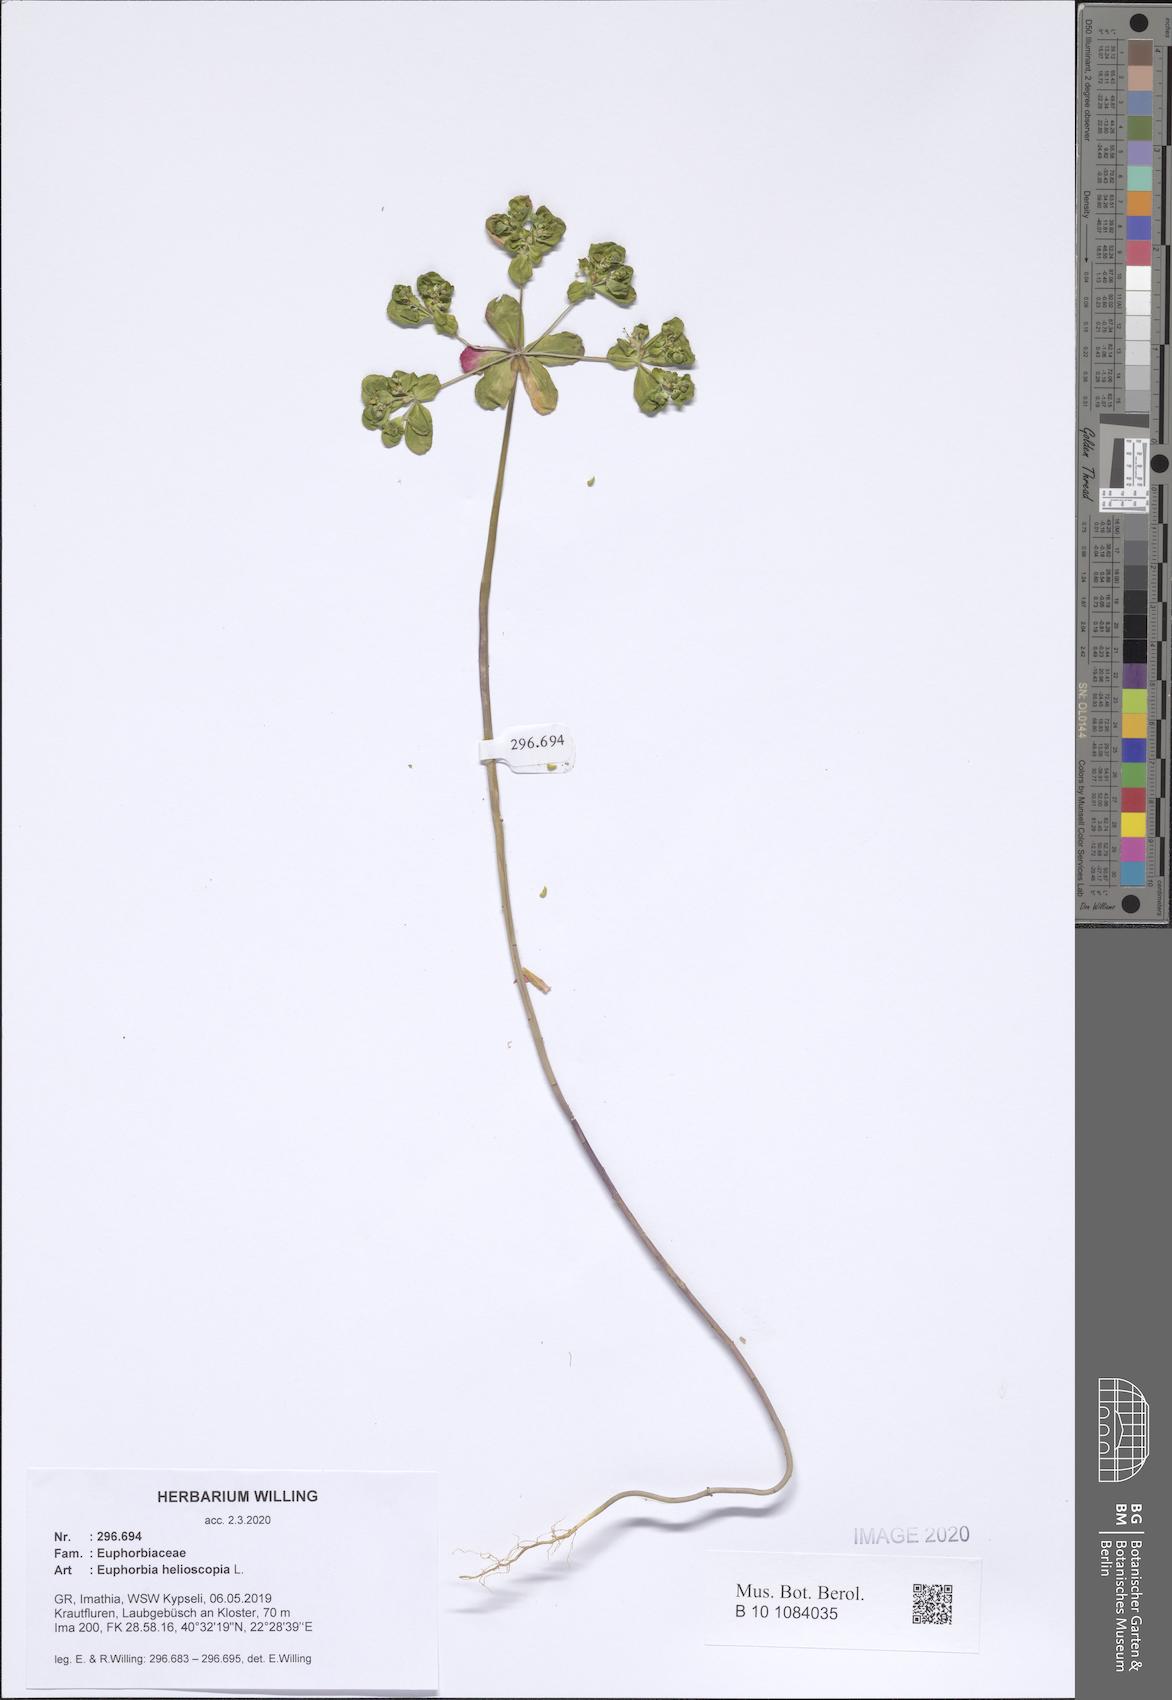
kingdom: Plantae
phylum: Tracheophyta
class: Magnoliopsida
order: Malpighiales
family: Euphorbiaceae
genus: Euphorbia
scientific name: Euphorbia helioscopia
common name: Sun spurge
